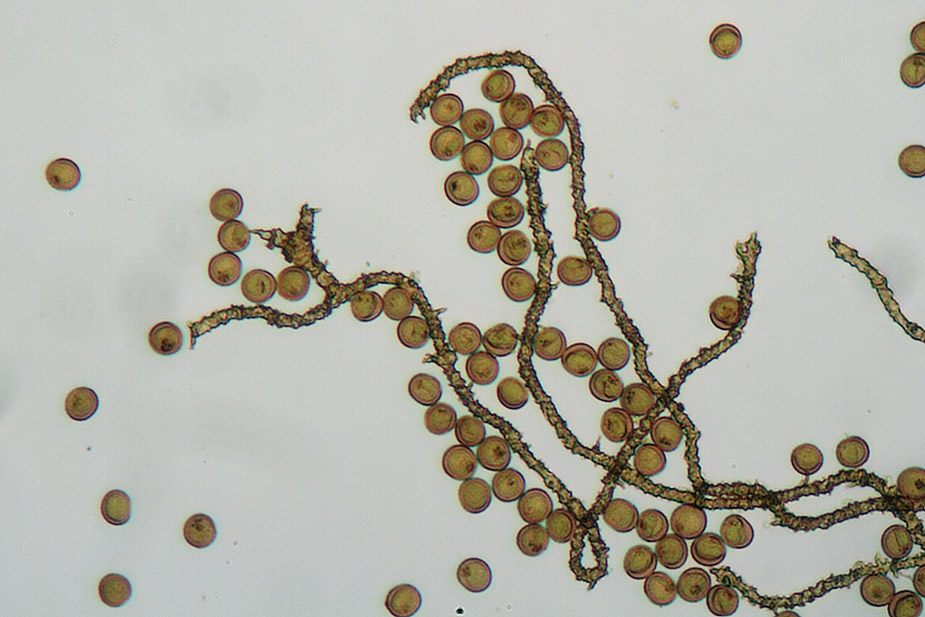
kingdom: Protozoa
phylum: Mycetozoa
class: Myxomycetes
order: Trichiales
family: Trichiaceae
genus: Trichia
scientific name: Trichia contorta
